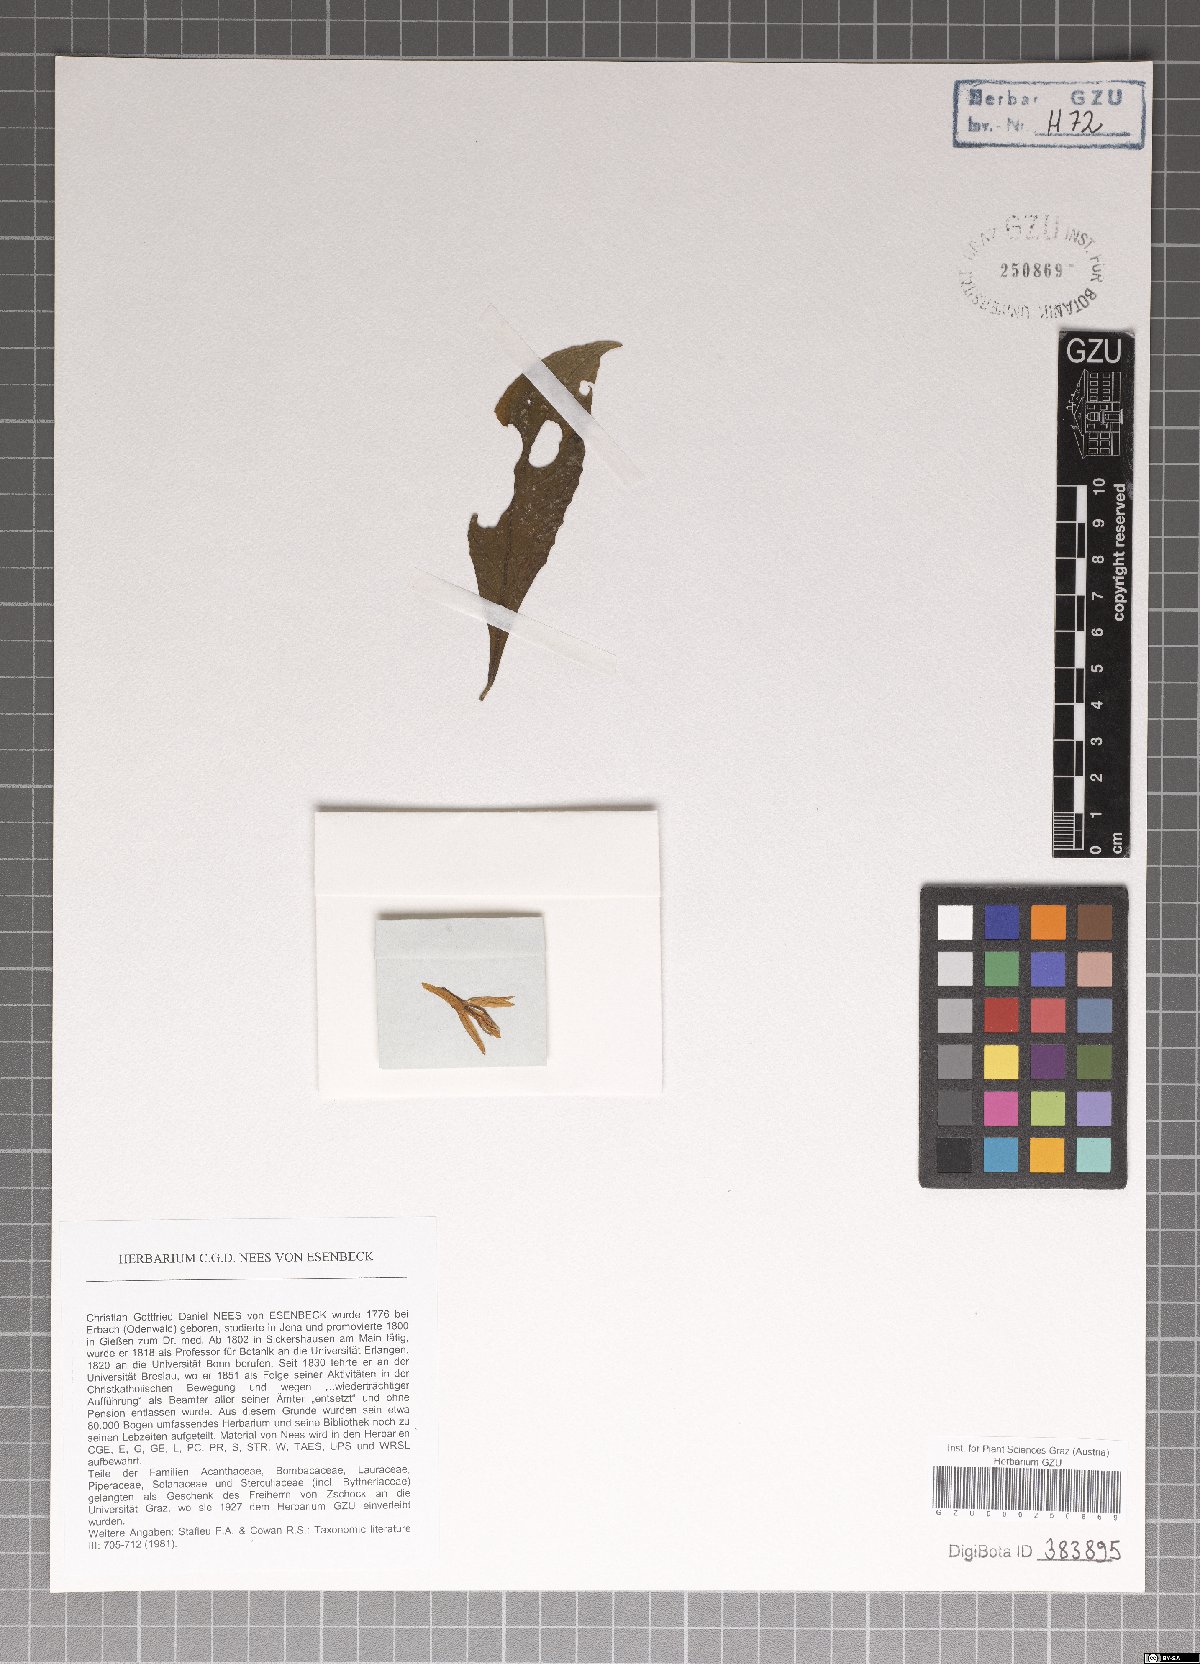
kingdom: Plantae
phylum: Tracheophyta
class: Magnoliopsida
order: Lamiales
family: Acanthaceae
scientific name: Acanthaceae
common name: Acanthaceae
